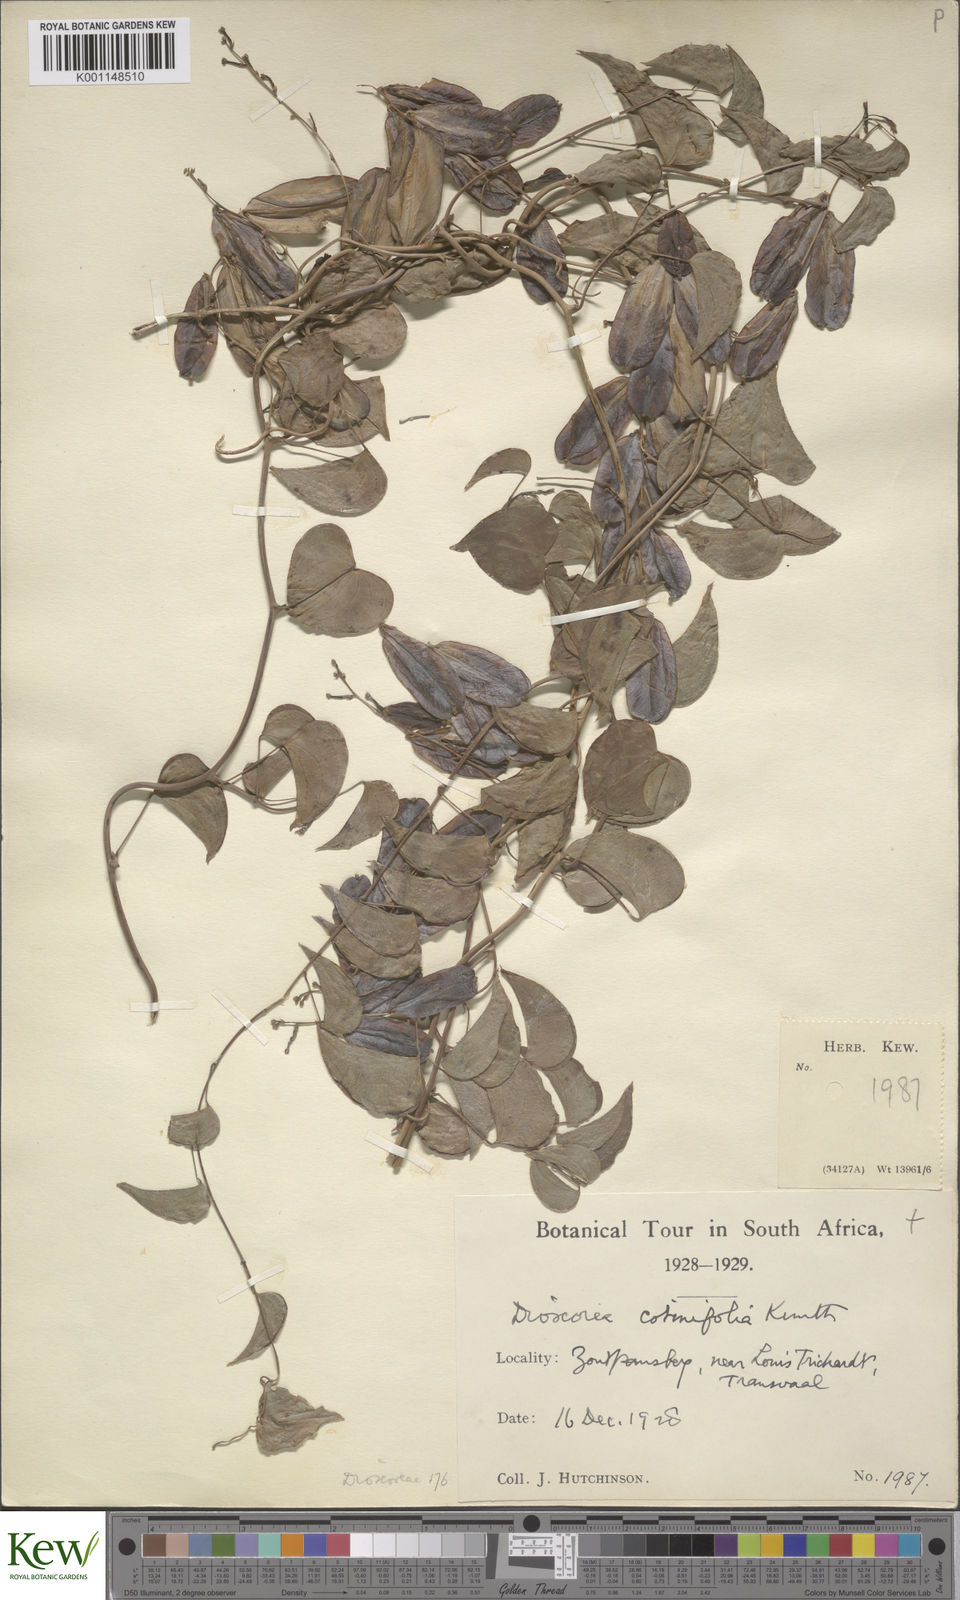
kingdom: Plantae
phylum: Tracheophyta
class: Liliopsida
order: Dioscoreales
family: Dioscoreaceae
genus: Dioscorea
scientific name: Dioscorea cotinifolia
